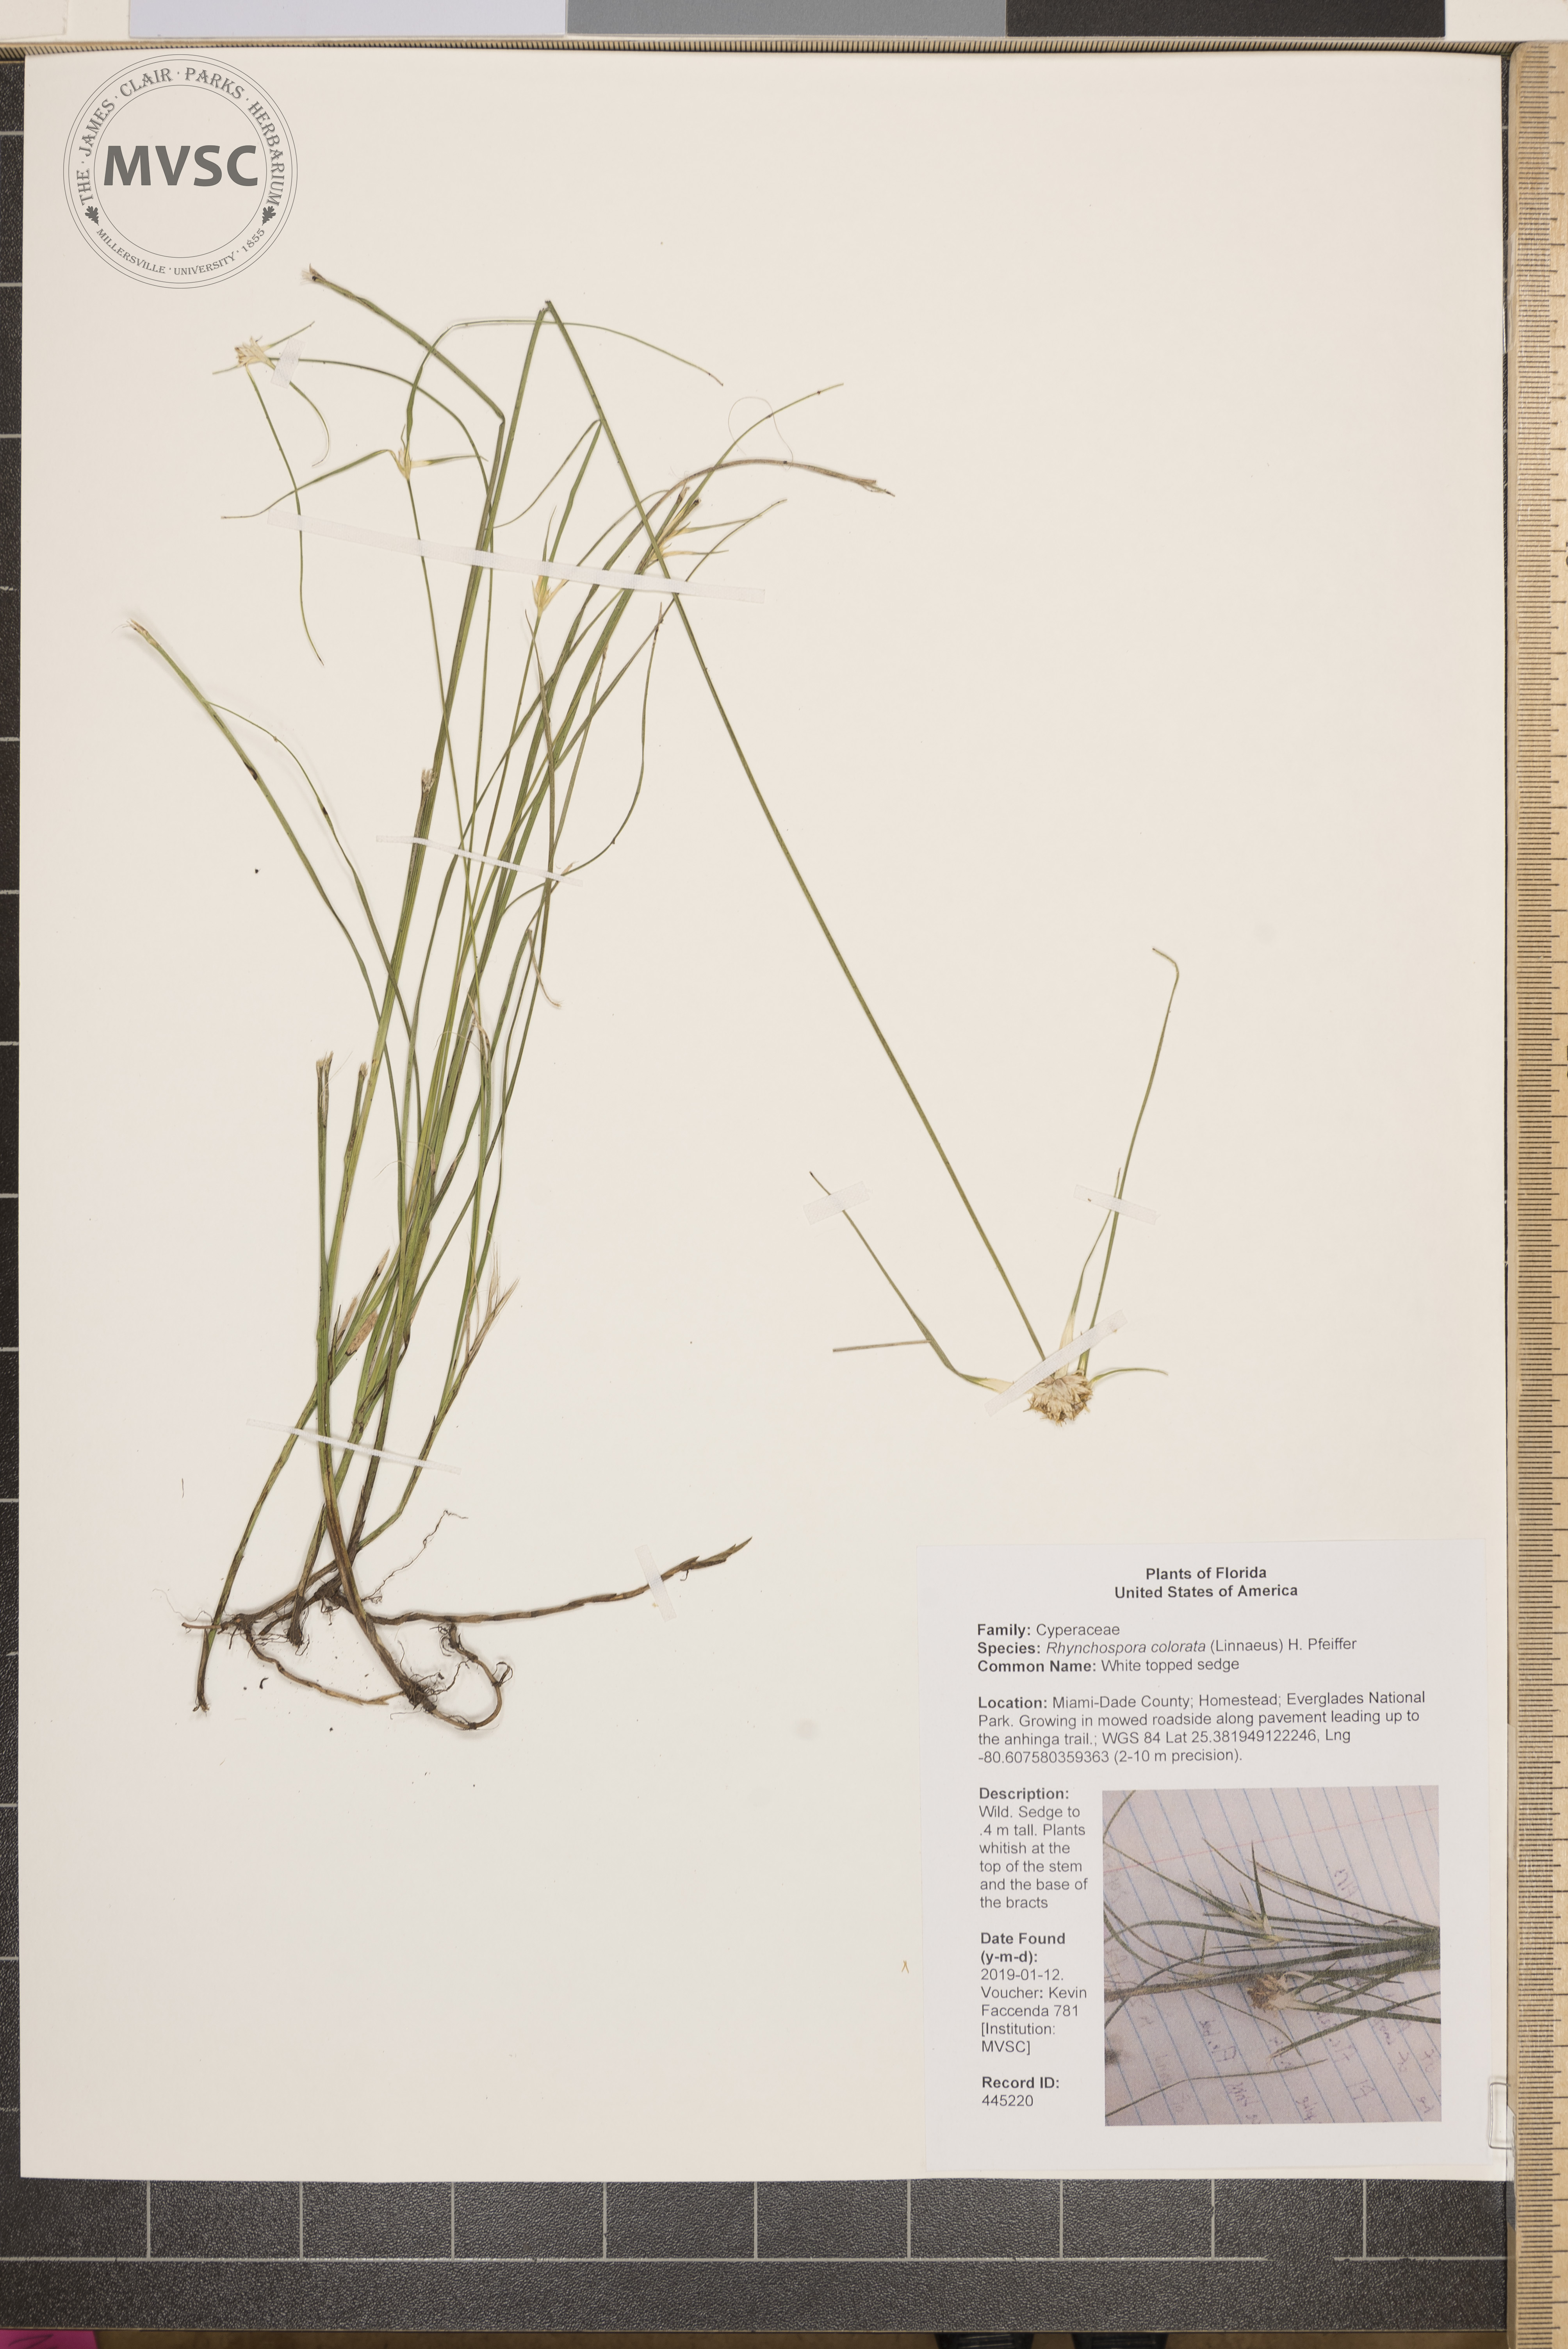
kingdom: Plantae
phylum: Tracheophyta
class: Liliopsida
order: Poales
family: Cyperaceae
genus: Rhynchospora
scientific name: Rhynchospora colorata
